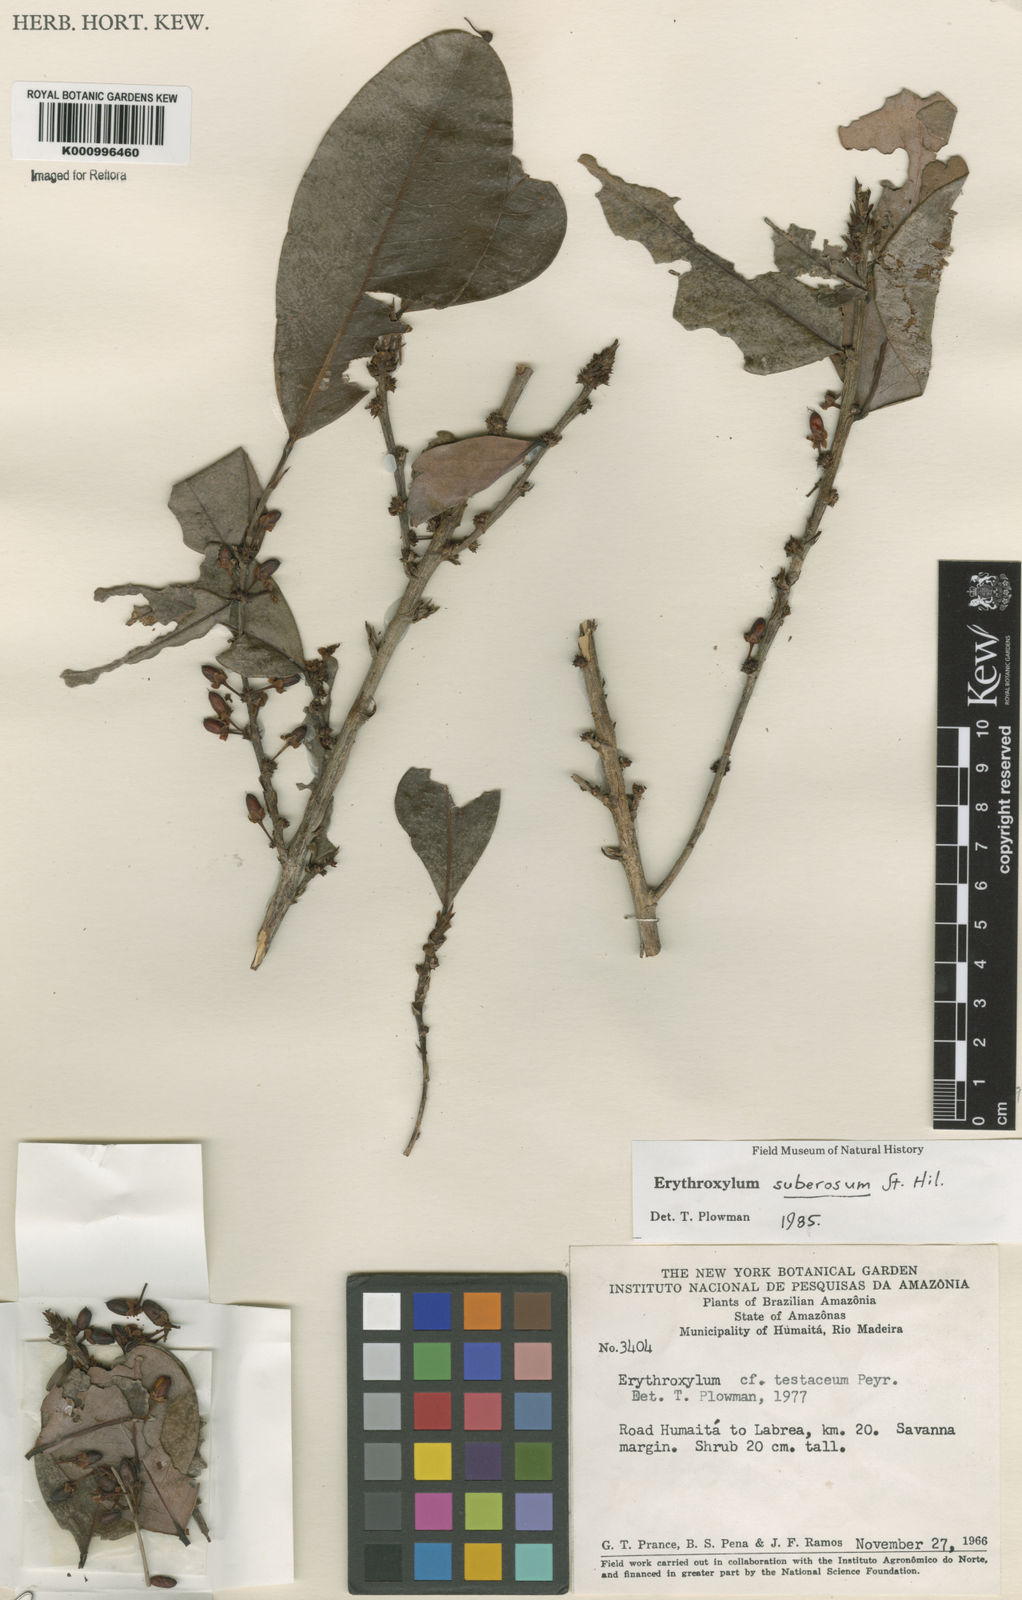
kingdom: Plantae
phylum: Tracheophyta
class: Magnoliopsida
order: Malpighiales
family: Erythroxylaceae
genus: Erythroxylum
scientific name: Erythroxylum suberosum
